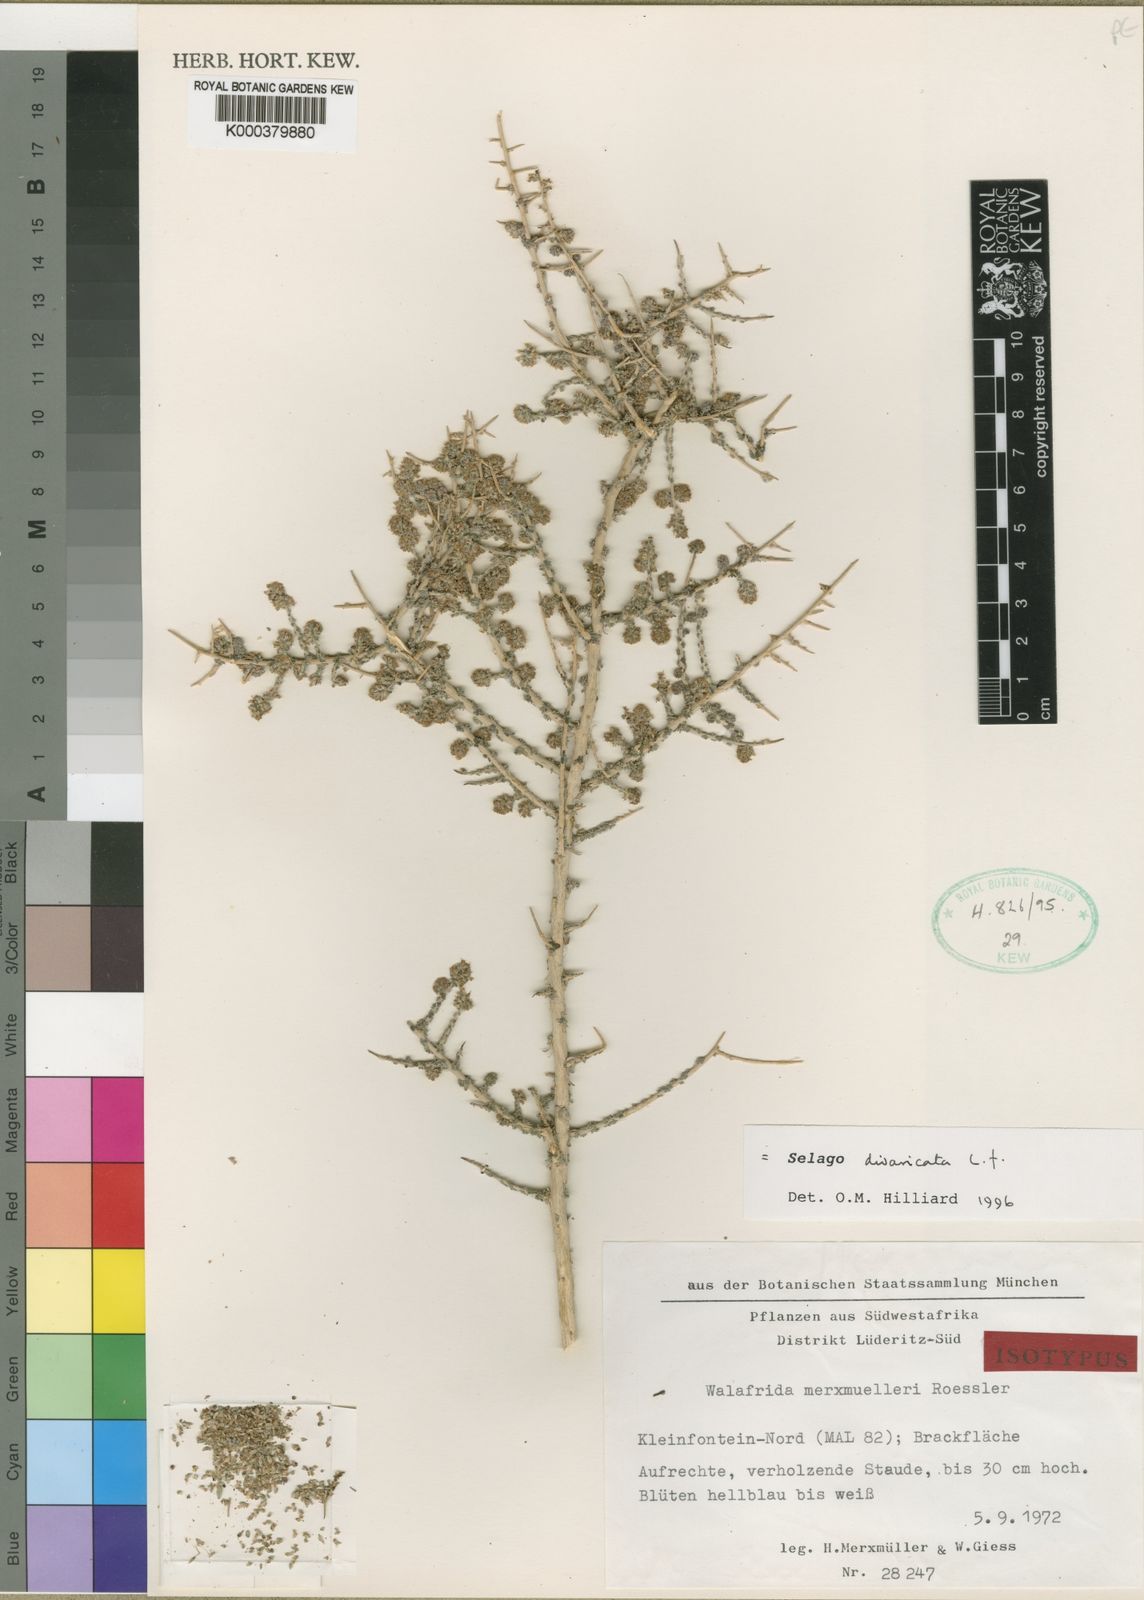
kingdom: Plantae
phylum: Tracheophyta
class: Magnoliopsida
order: Lamiales
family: Scrophulariaceae
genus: Selago
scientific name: Selago divaricata
